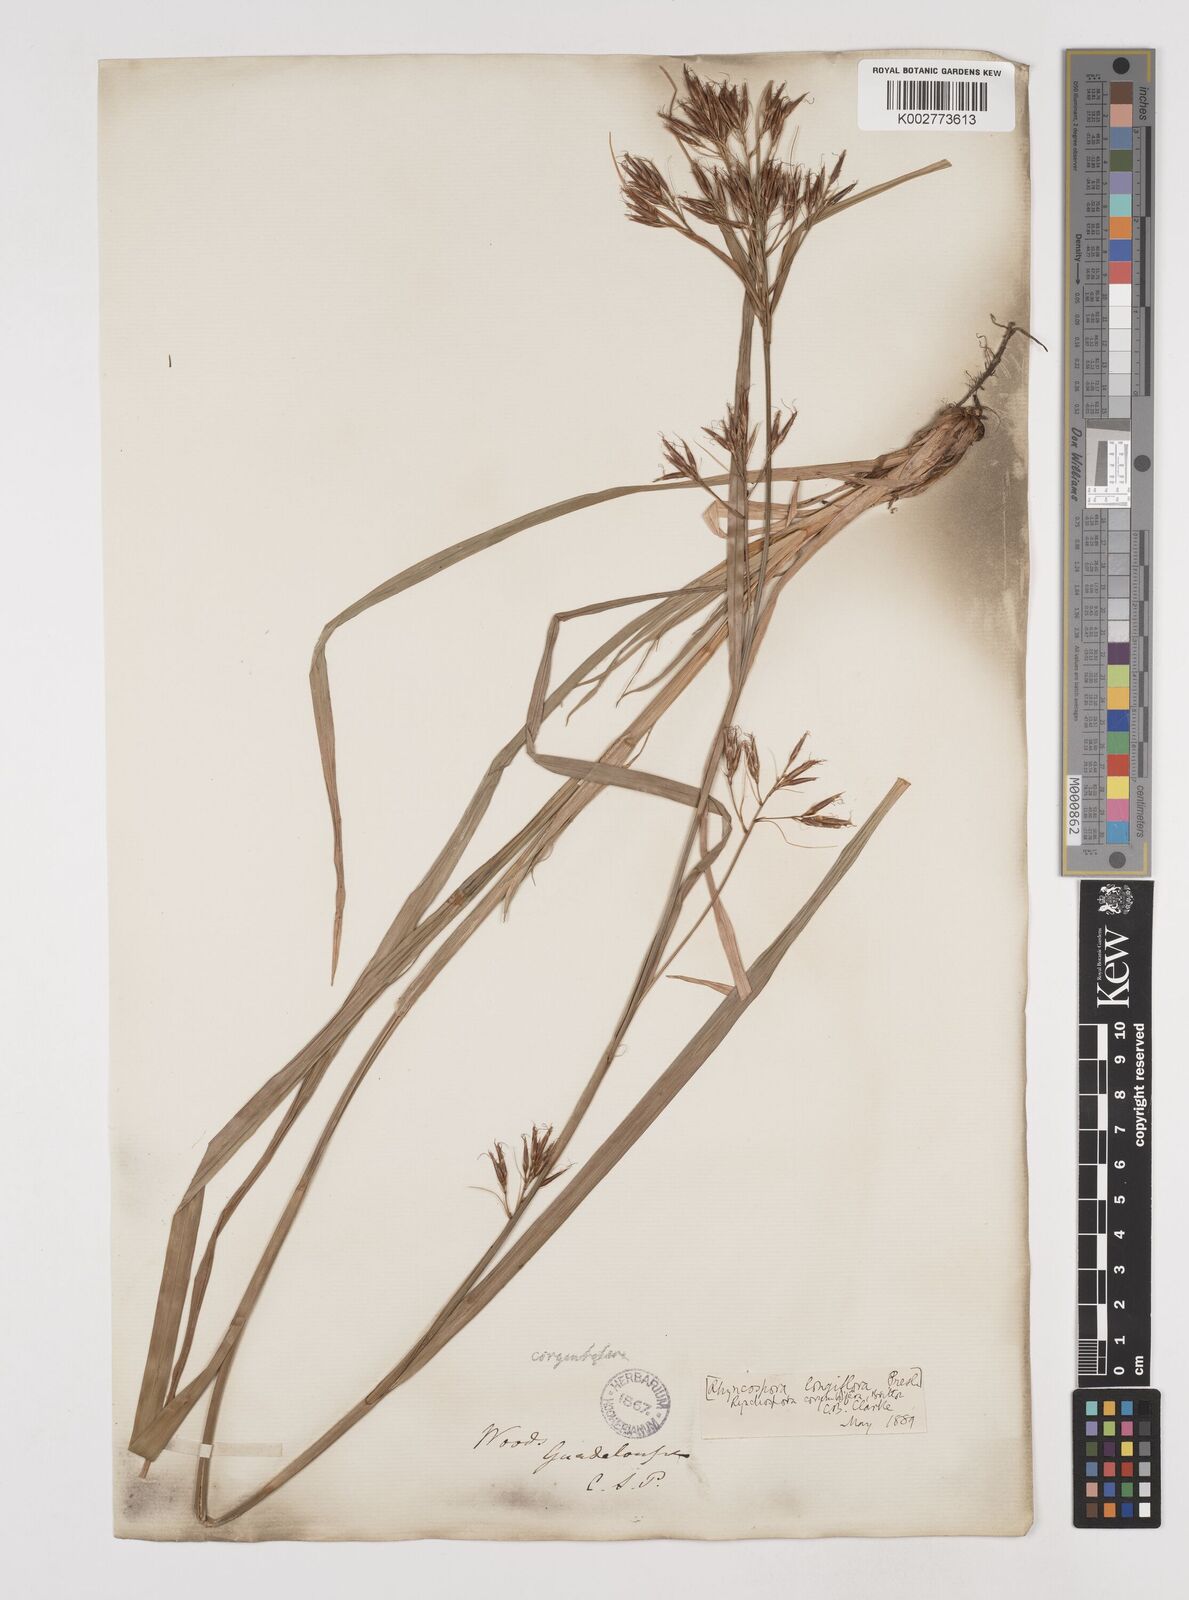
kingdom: Plantae
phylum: Tracheophyta
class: Liliopsida
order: Poales
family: Cyperaceae
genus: Rhynchospora
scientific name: Rhynchospora longiflora
